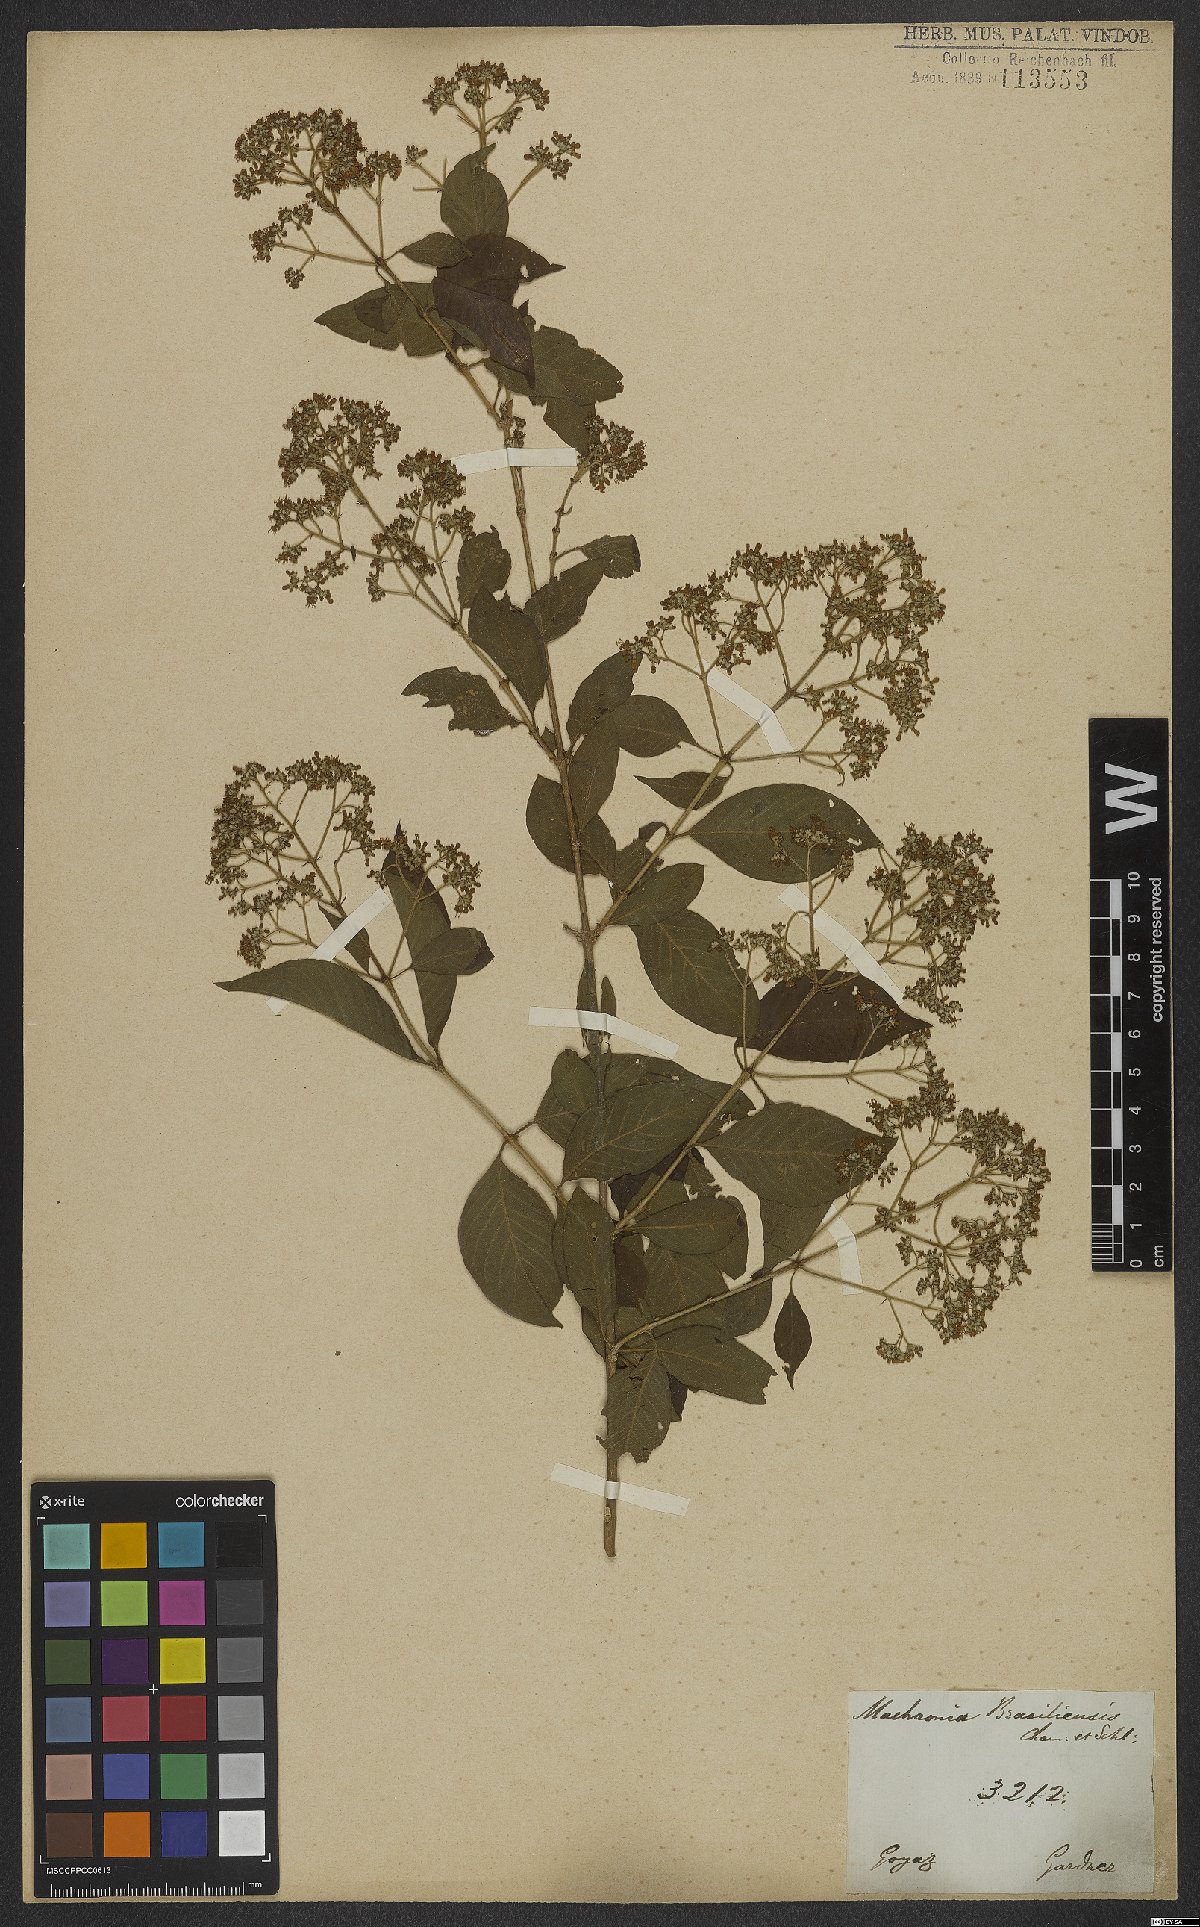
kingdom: Plantae
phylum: Tracheophyta
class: Magnoliopsida
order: Gentianales
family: Rubiaceae
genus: Machaonia
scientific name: Machaonia brasiliensis
